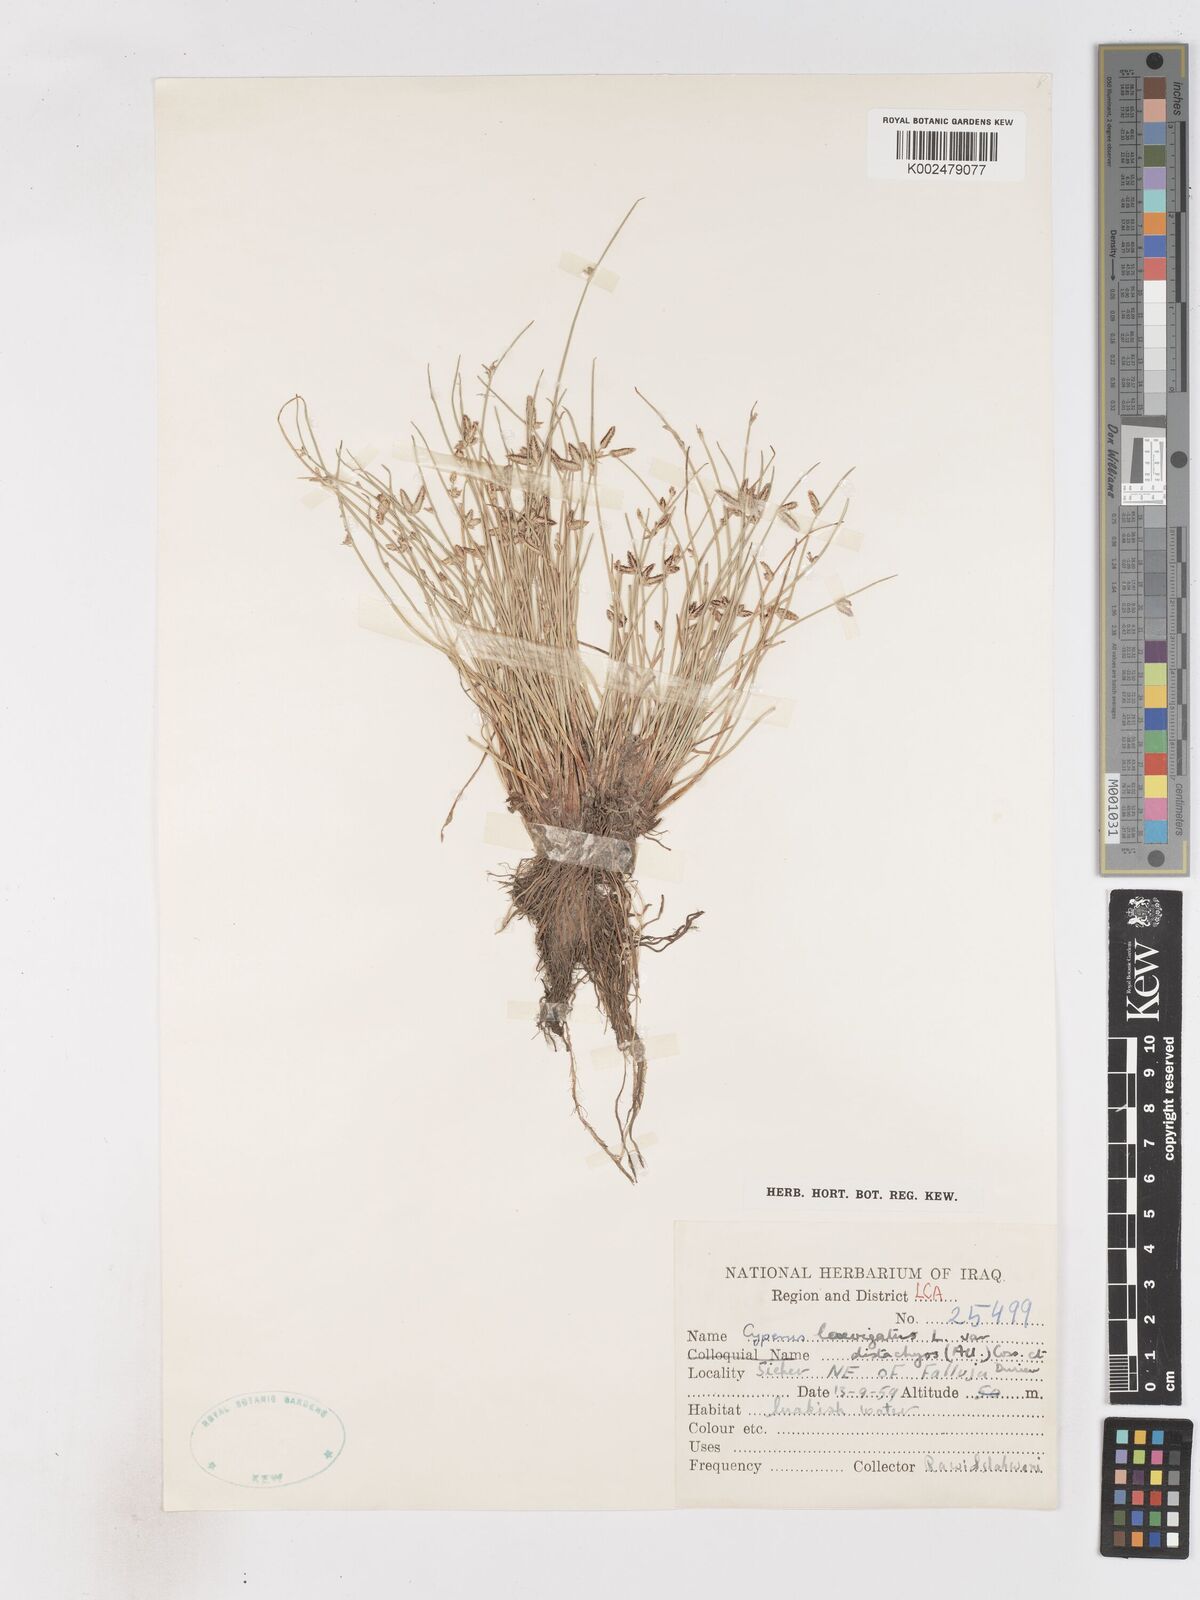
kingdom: Plantae
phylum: Tracheophyta
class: Liliopsida
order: Poales
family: Cyperaceae
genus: Cyperus
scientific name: Cyperus laevigatus
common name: Smooth flat sedge
